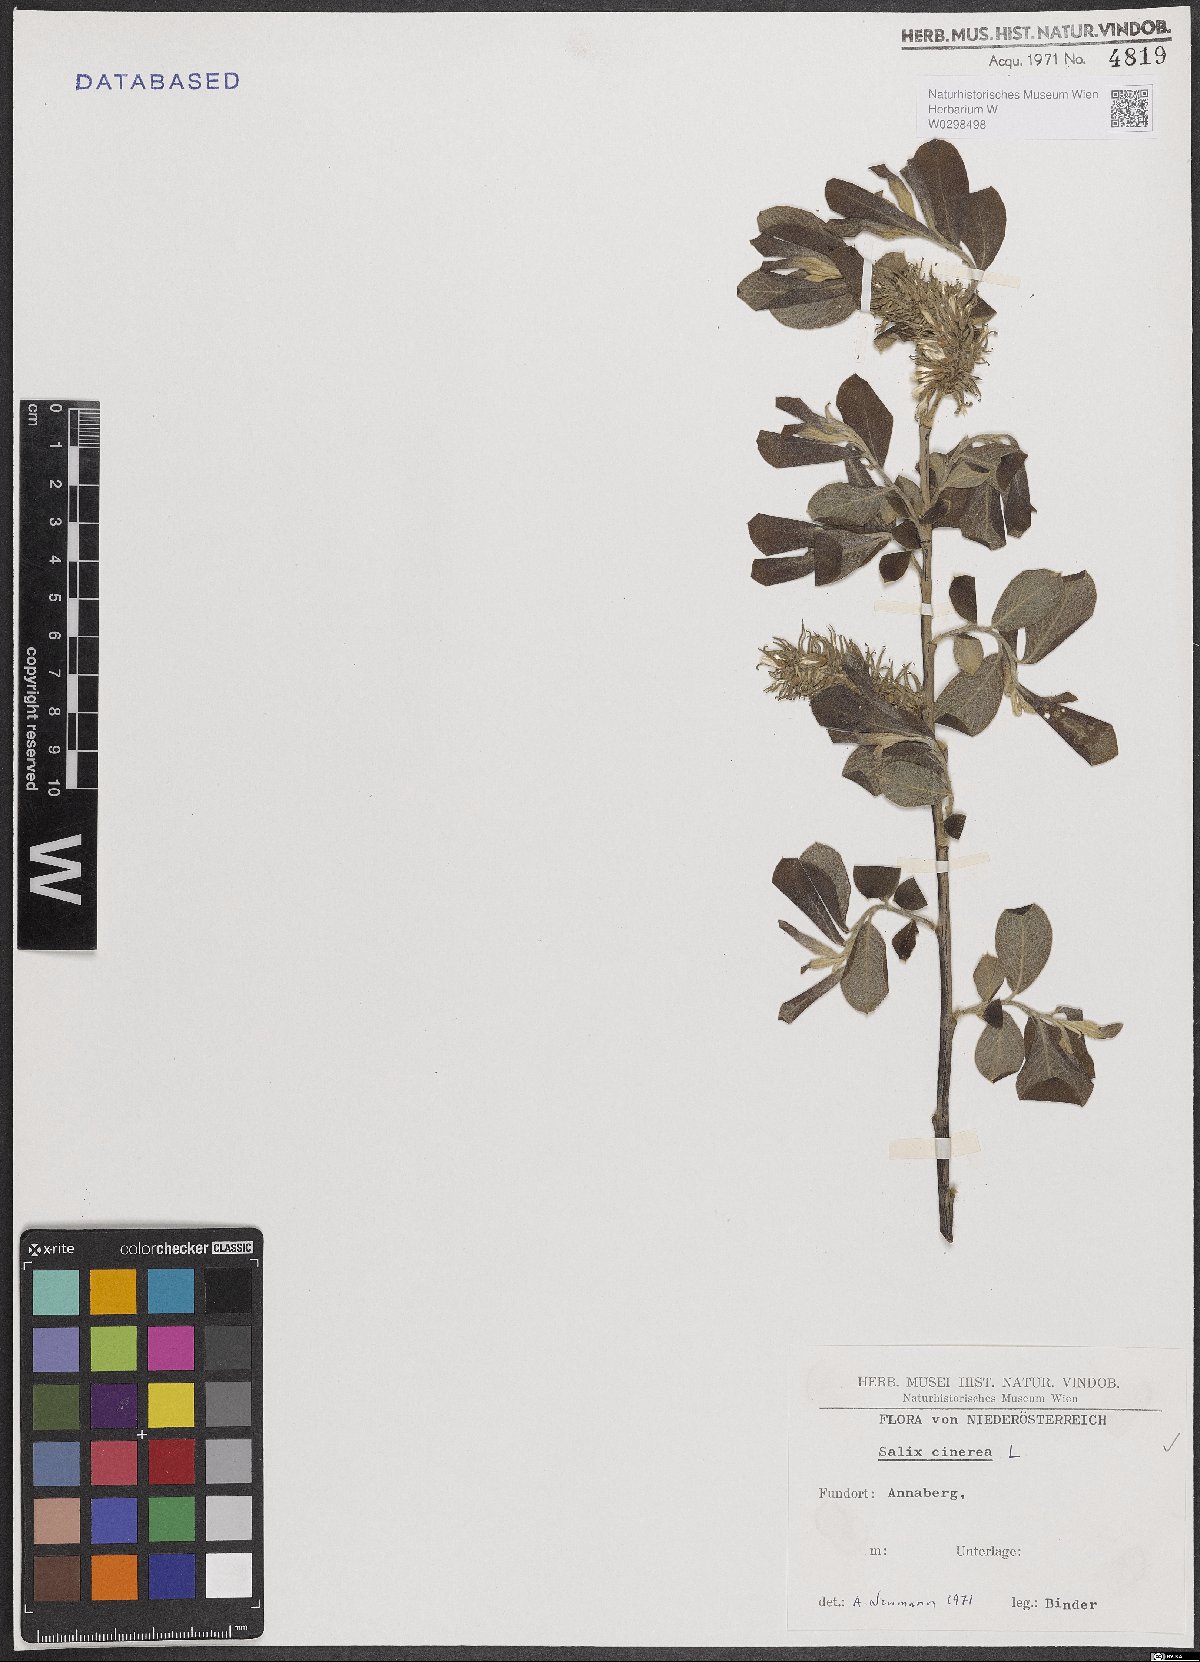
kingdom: Plantae
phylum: Tracheophyta
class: Magnoliopsida
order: Malpighiales
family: Salicaceae
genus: Salix
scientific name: Salix cinerea
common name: Common sallow
